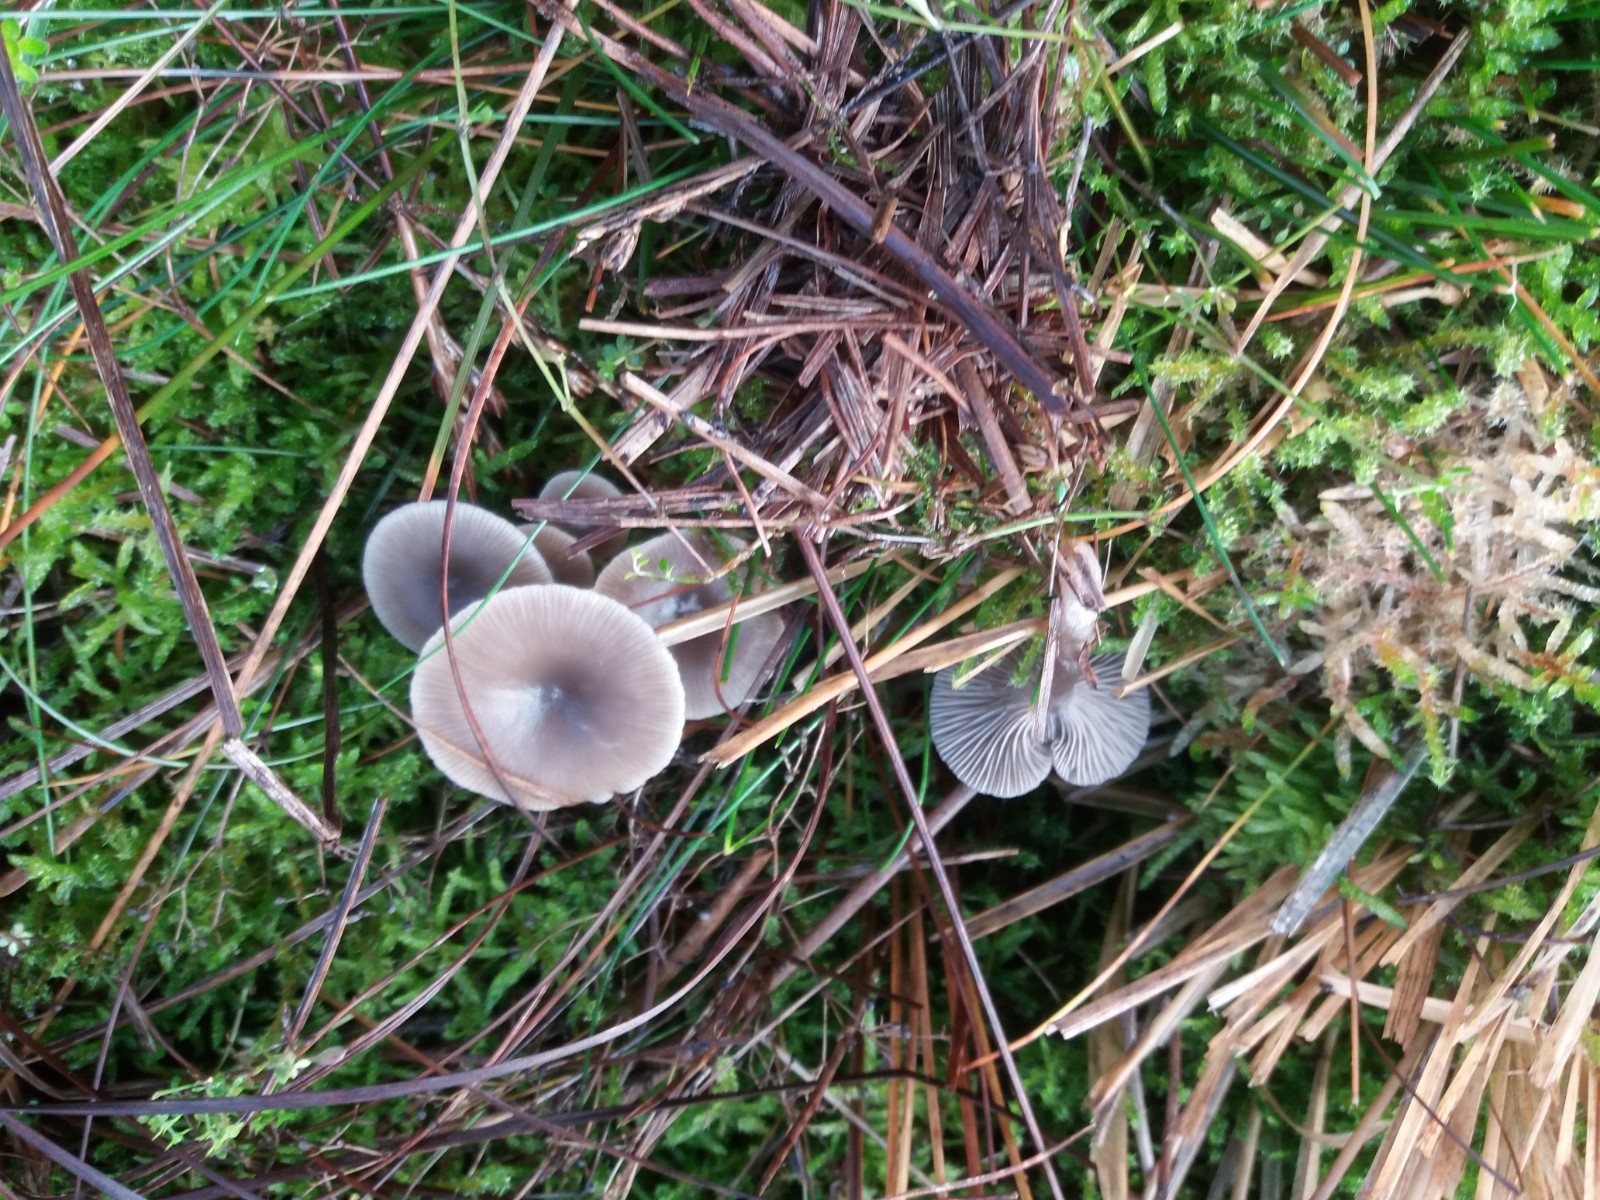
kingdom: Fungi
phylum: Basidiomycota
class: Agaricomycetes
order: Agaricales
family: Tricholomataceae
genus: Clitocybe
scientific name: Clitocybe vibecina
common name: randstribet tragthat
